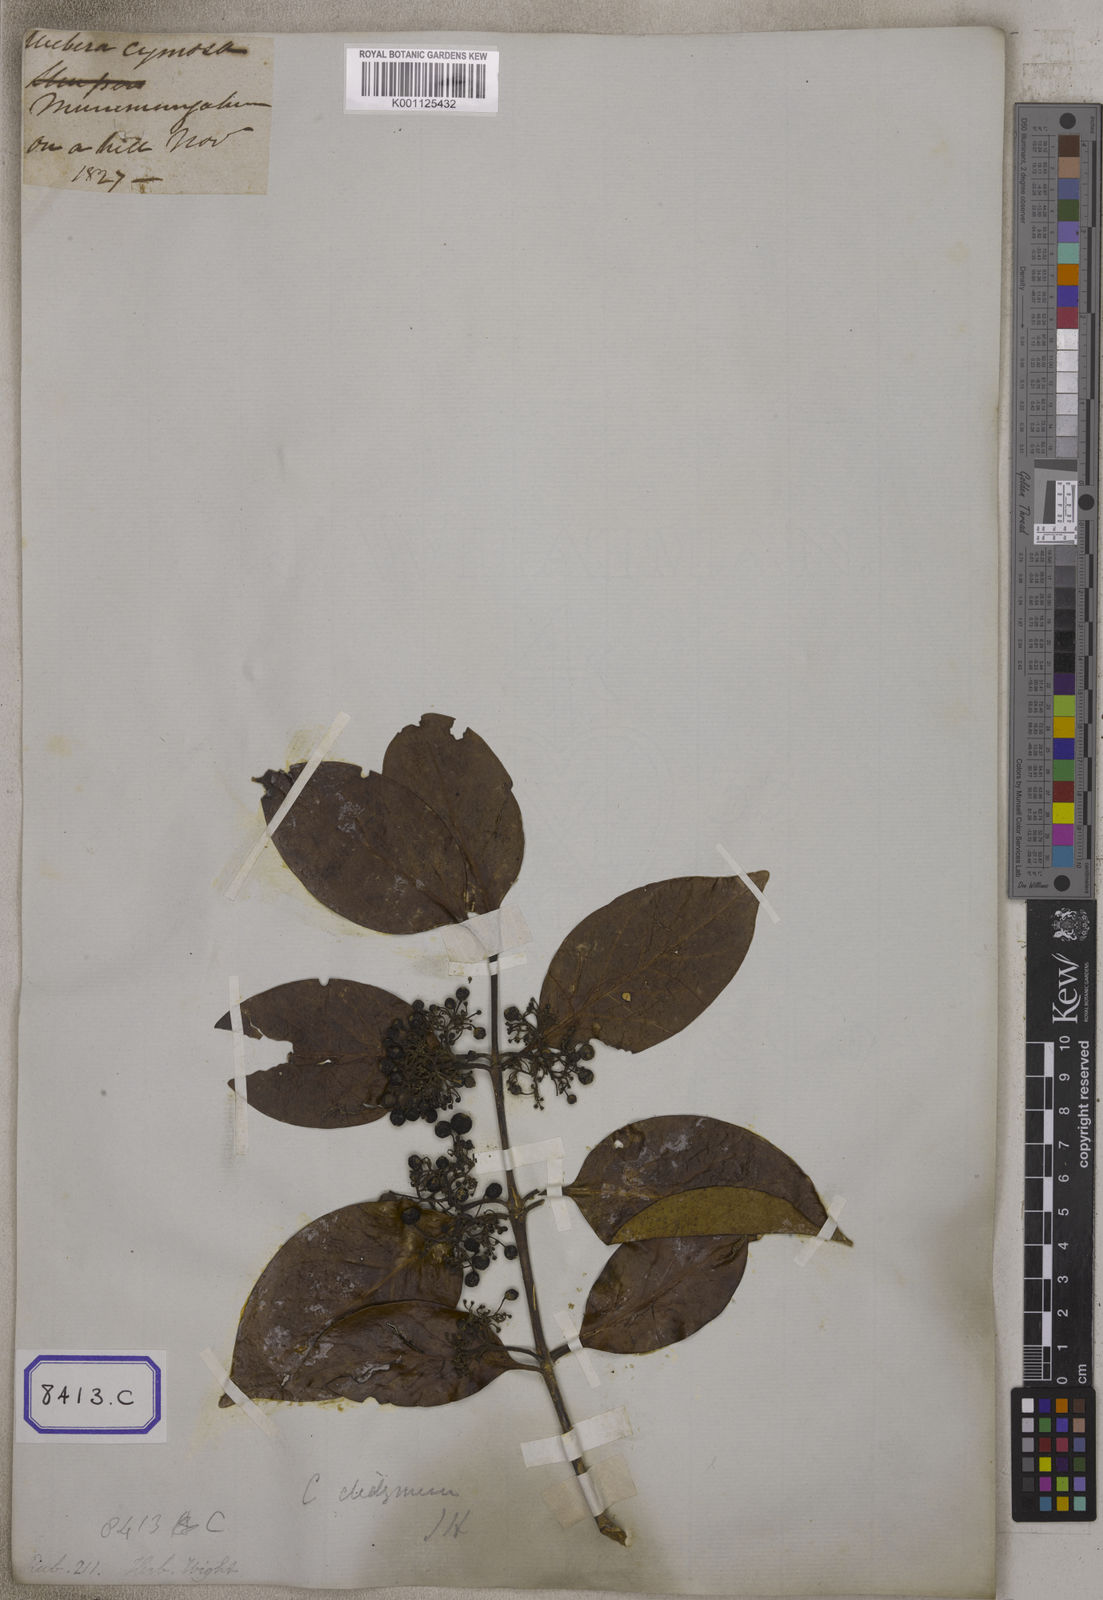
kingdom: Plantae
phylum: Tracheophyta
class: Magnoliopsida
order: Gentianales
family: Rubiaceae
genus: Psydrax
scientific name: Psydrax dicoccos
